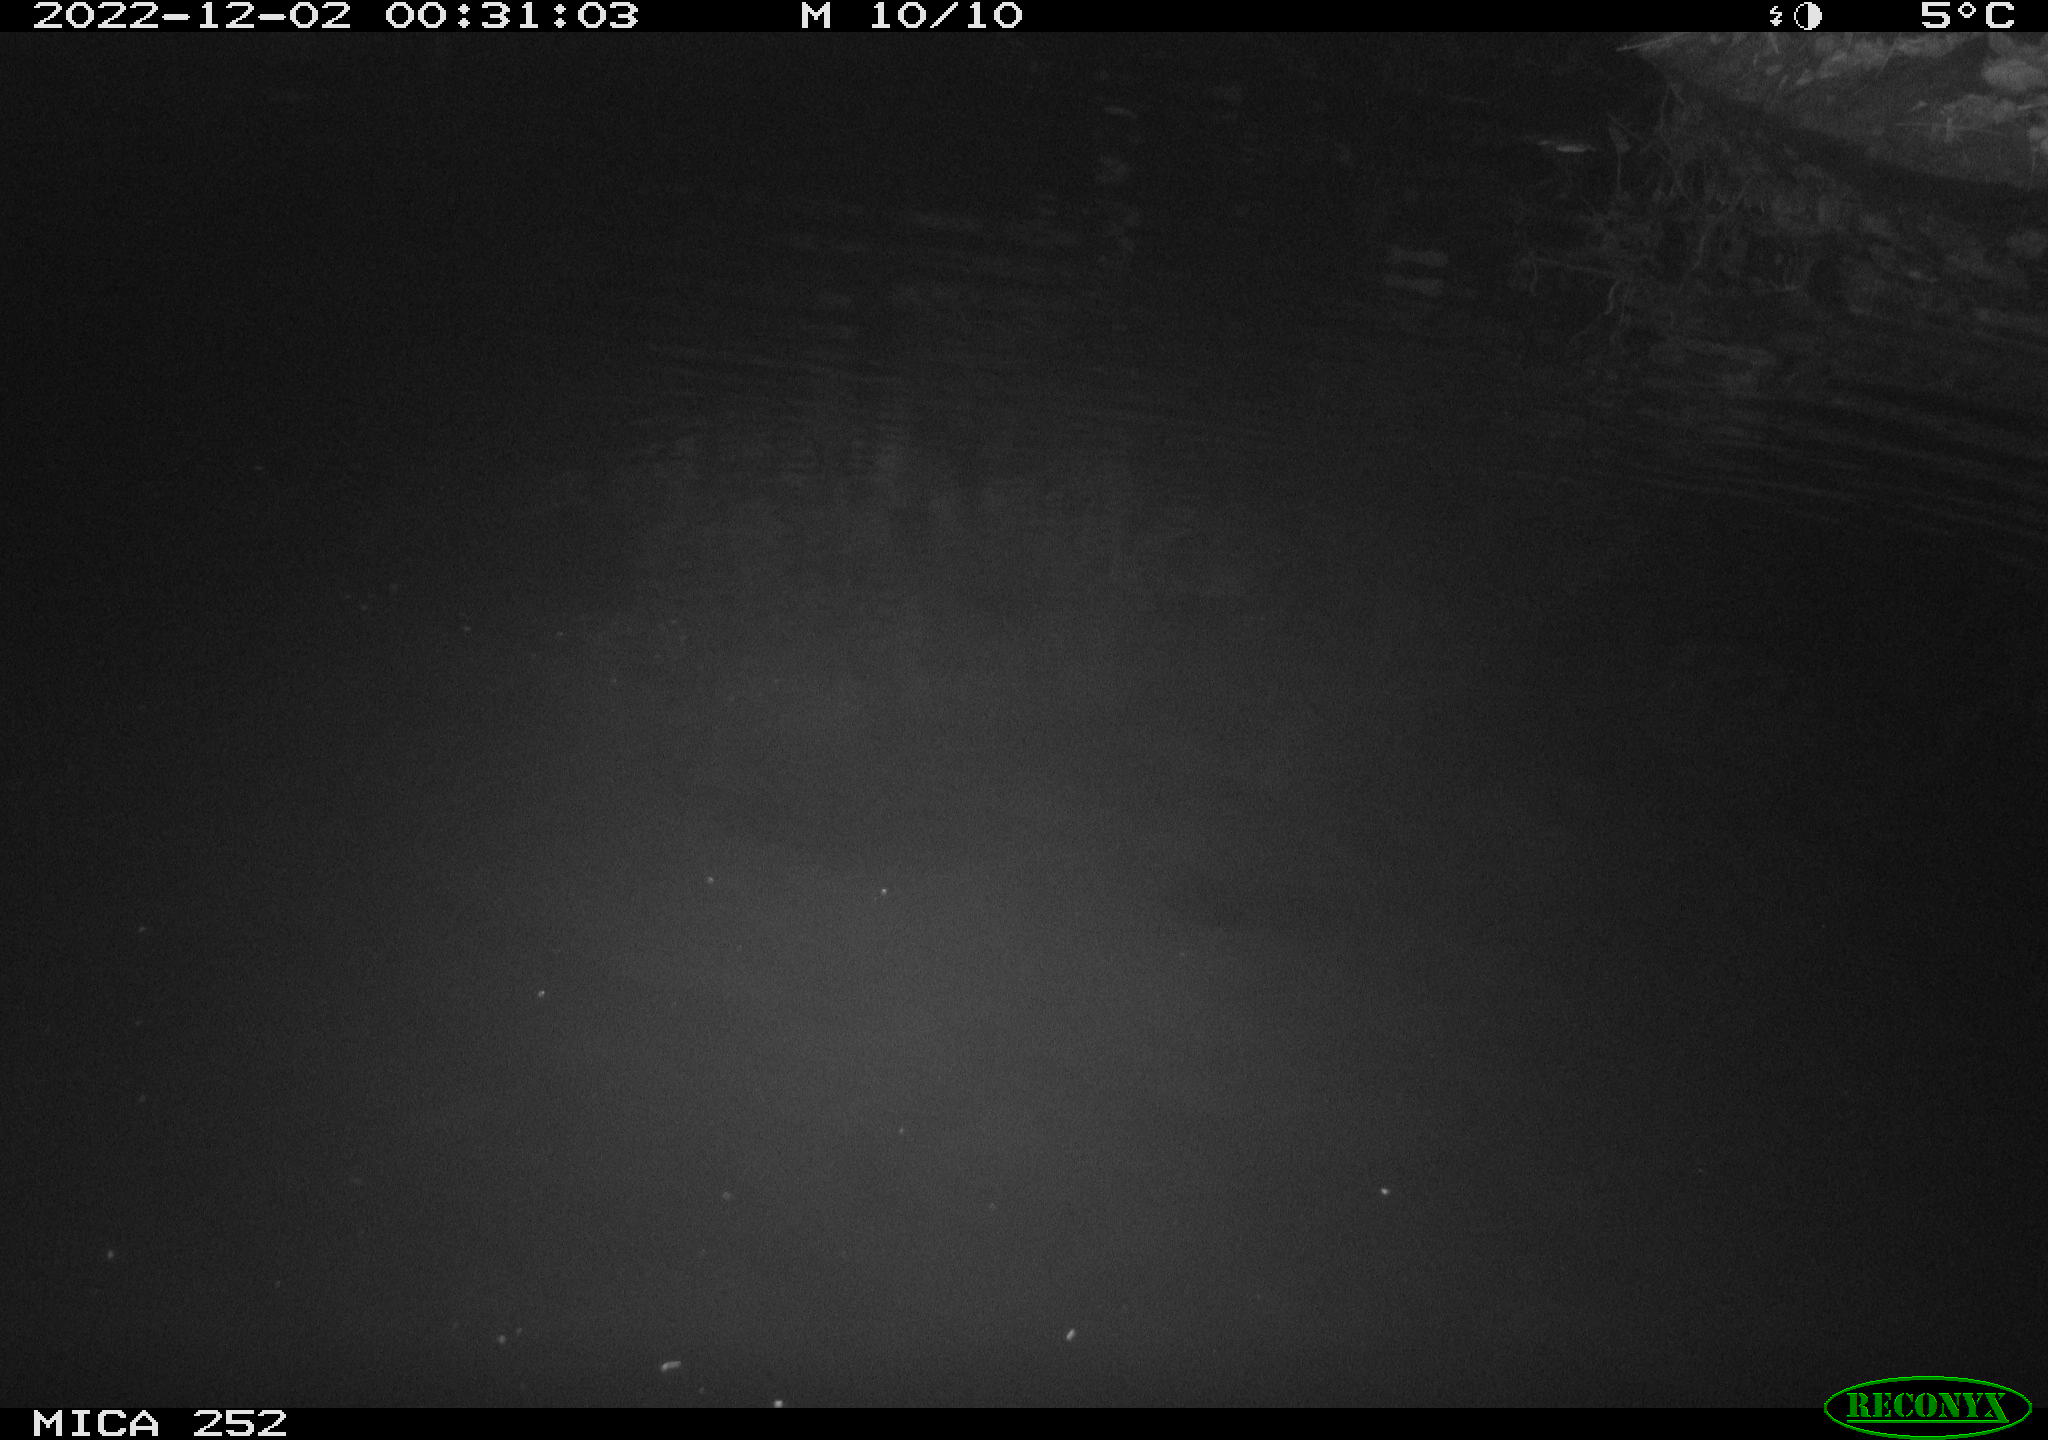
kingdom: Animalia
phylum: Chordata
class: Mammalia
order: Rodentia
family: Castoridae
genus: Castor
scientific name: Castor fiber
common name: Eurasian beaver
